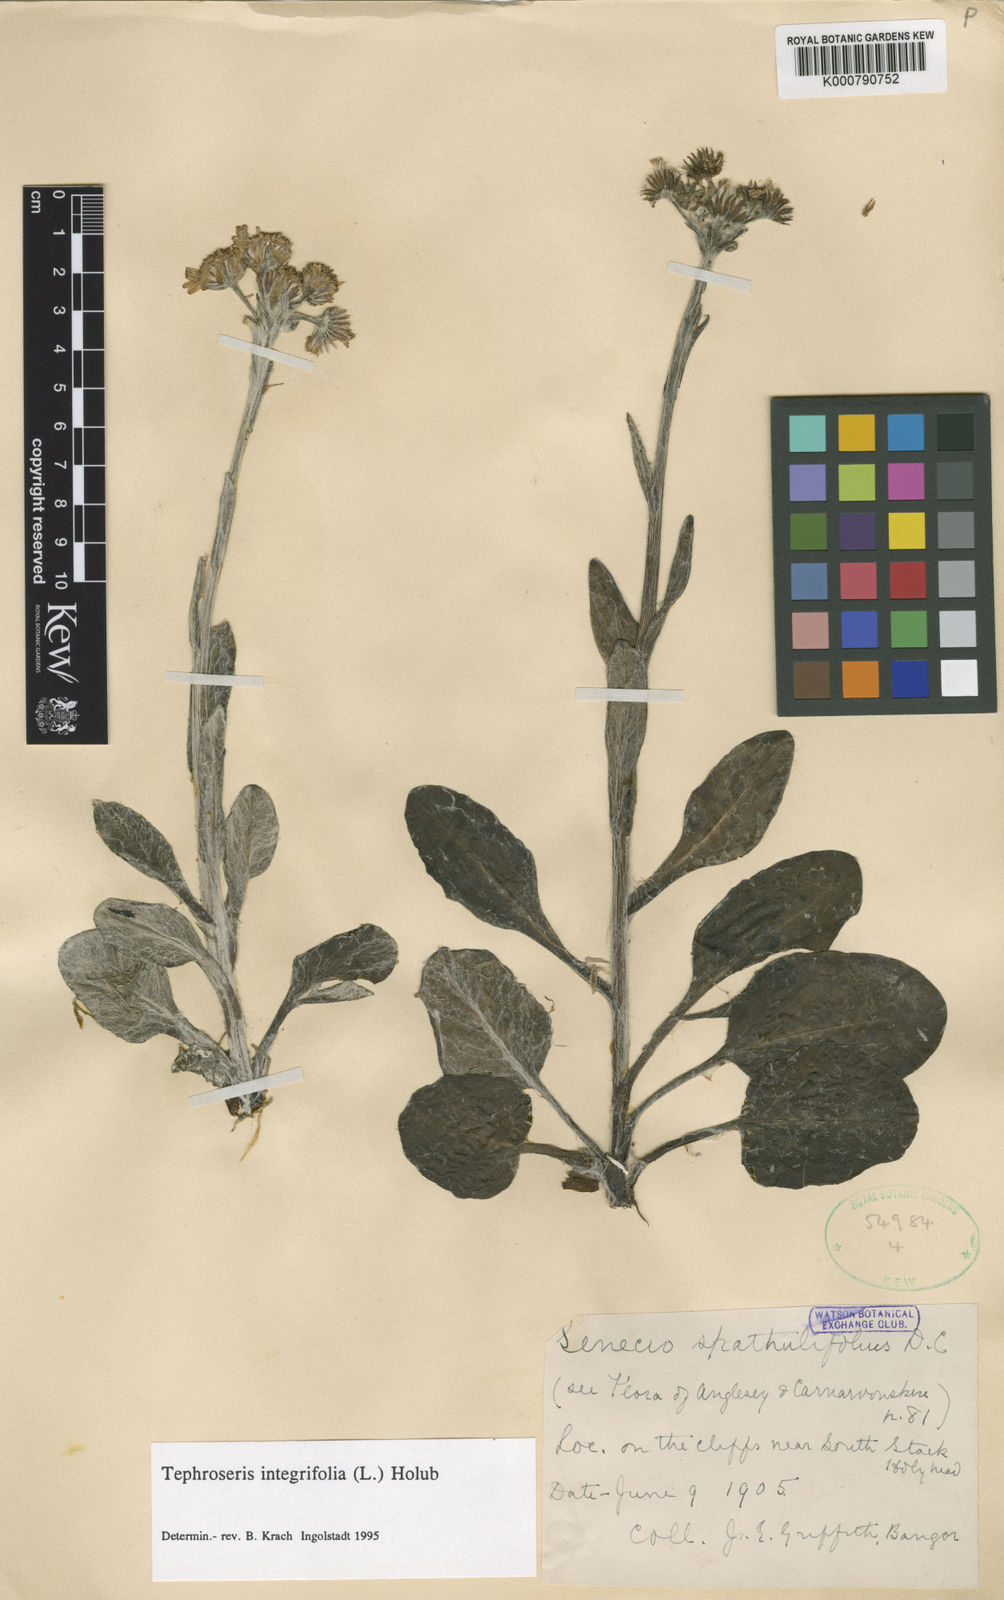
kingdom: Plantae
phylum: Tracheophyta
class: Magnoliopsida
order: Asterales
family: Asteraceae
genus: Tephroseris
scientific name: Tephroseris integrifolia
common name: Field fleawort
